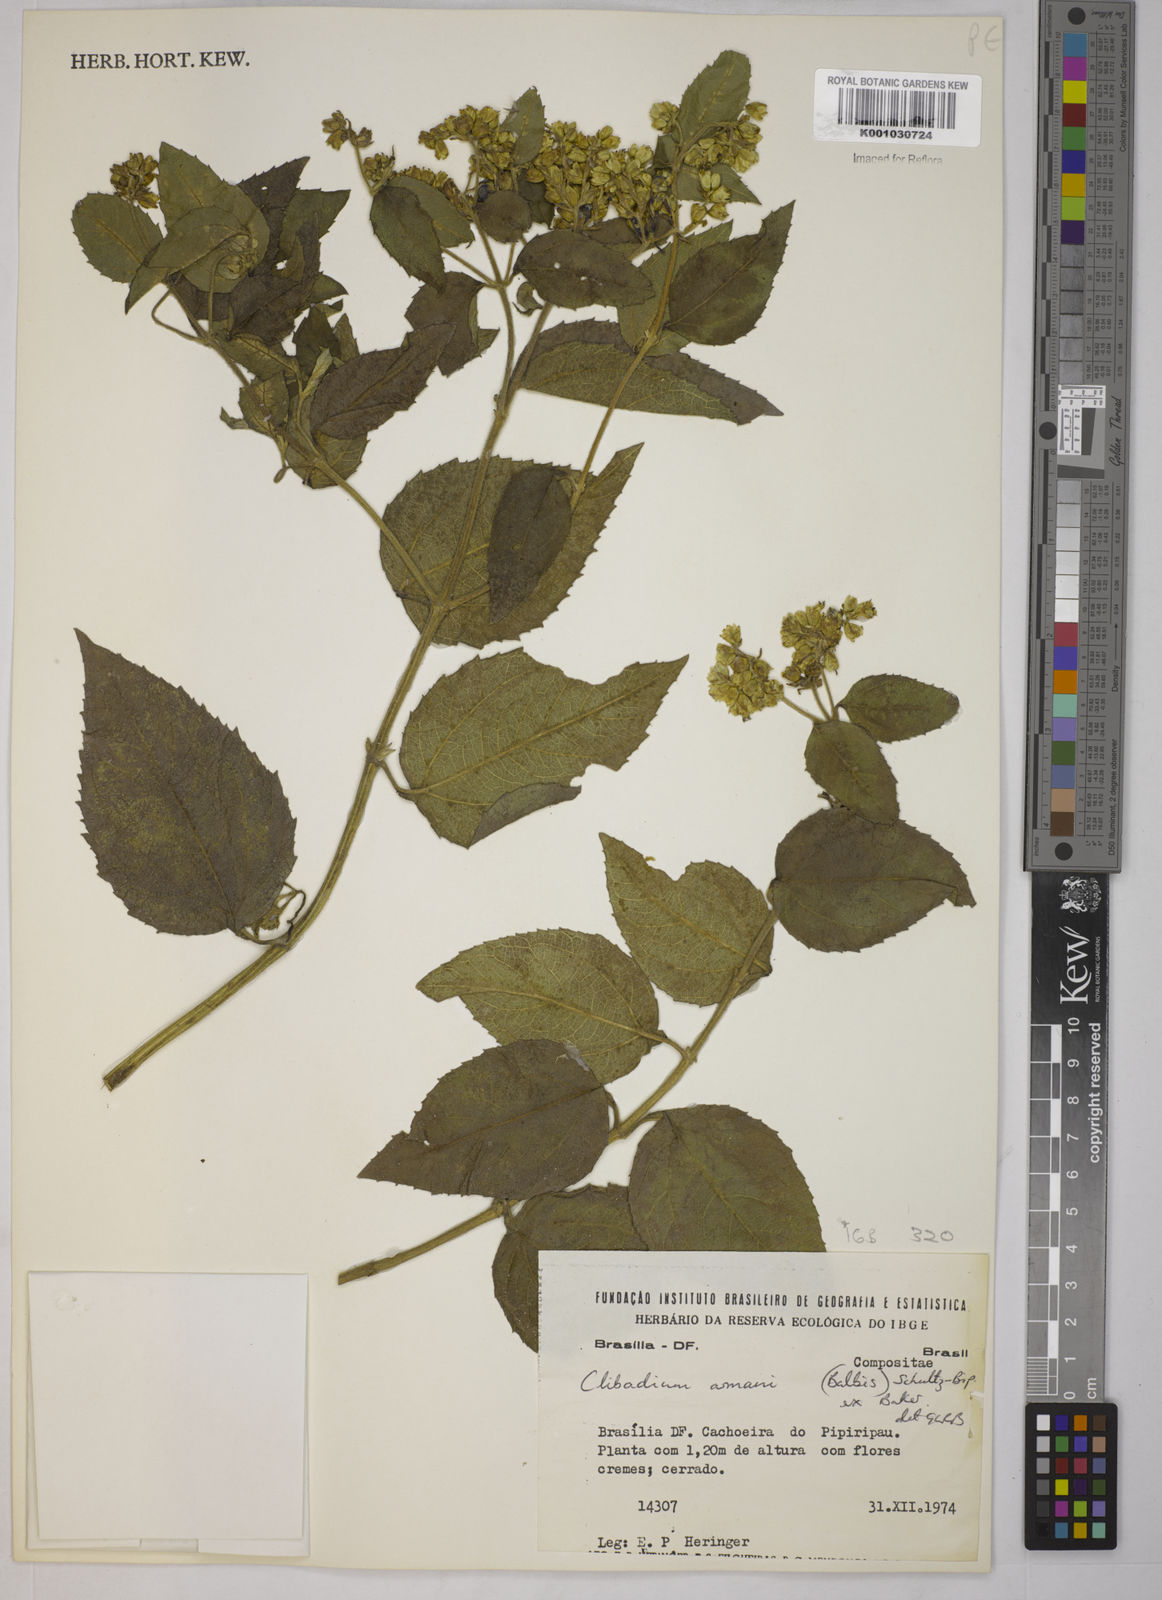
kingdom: Plantae
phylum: Tracheophyta
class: Magnoliopsida
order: Asterales
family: Asteraceae
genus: Clibadium
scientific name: Clibadium armanii
